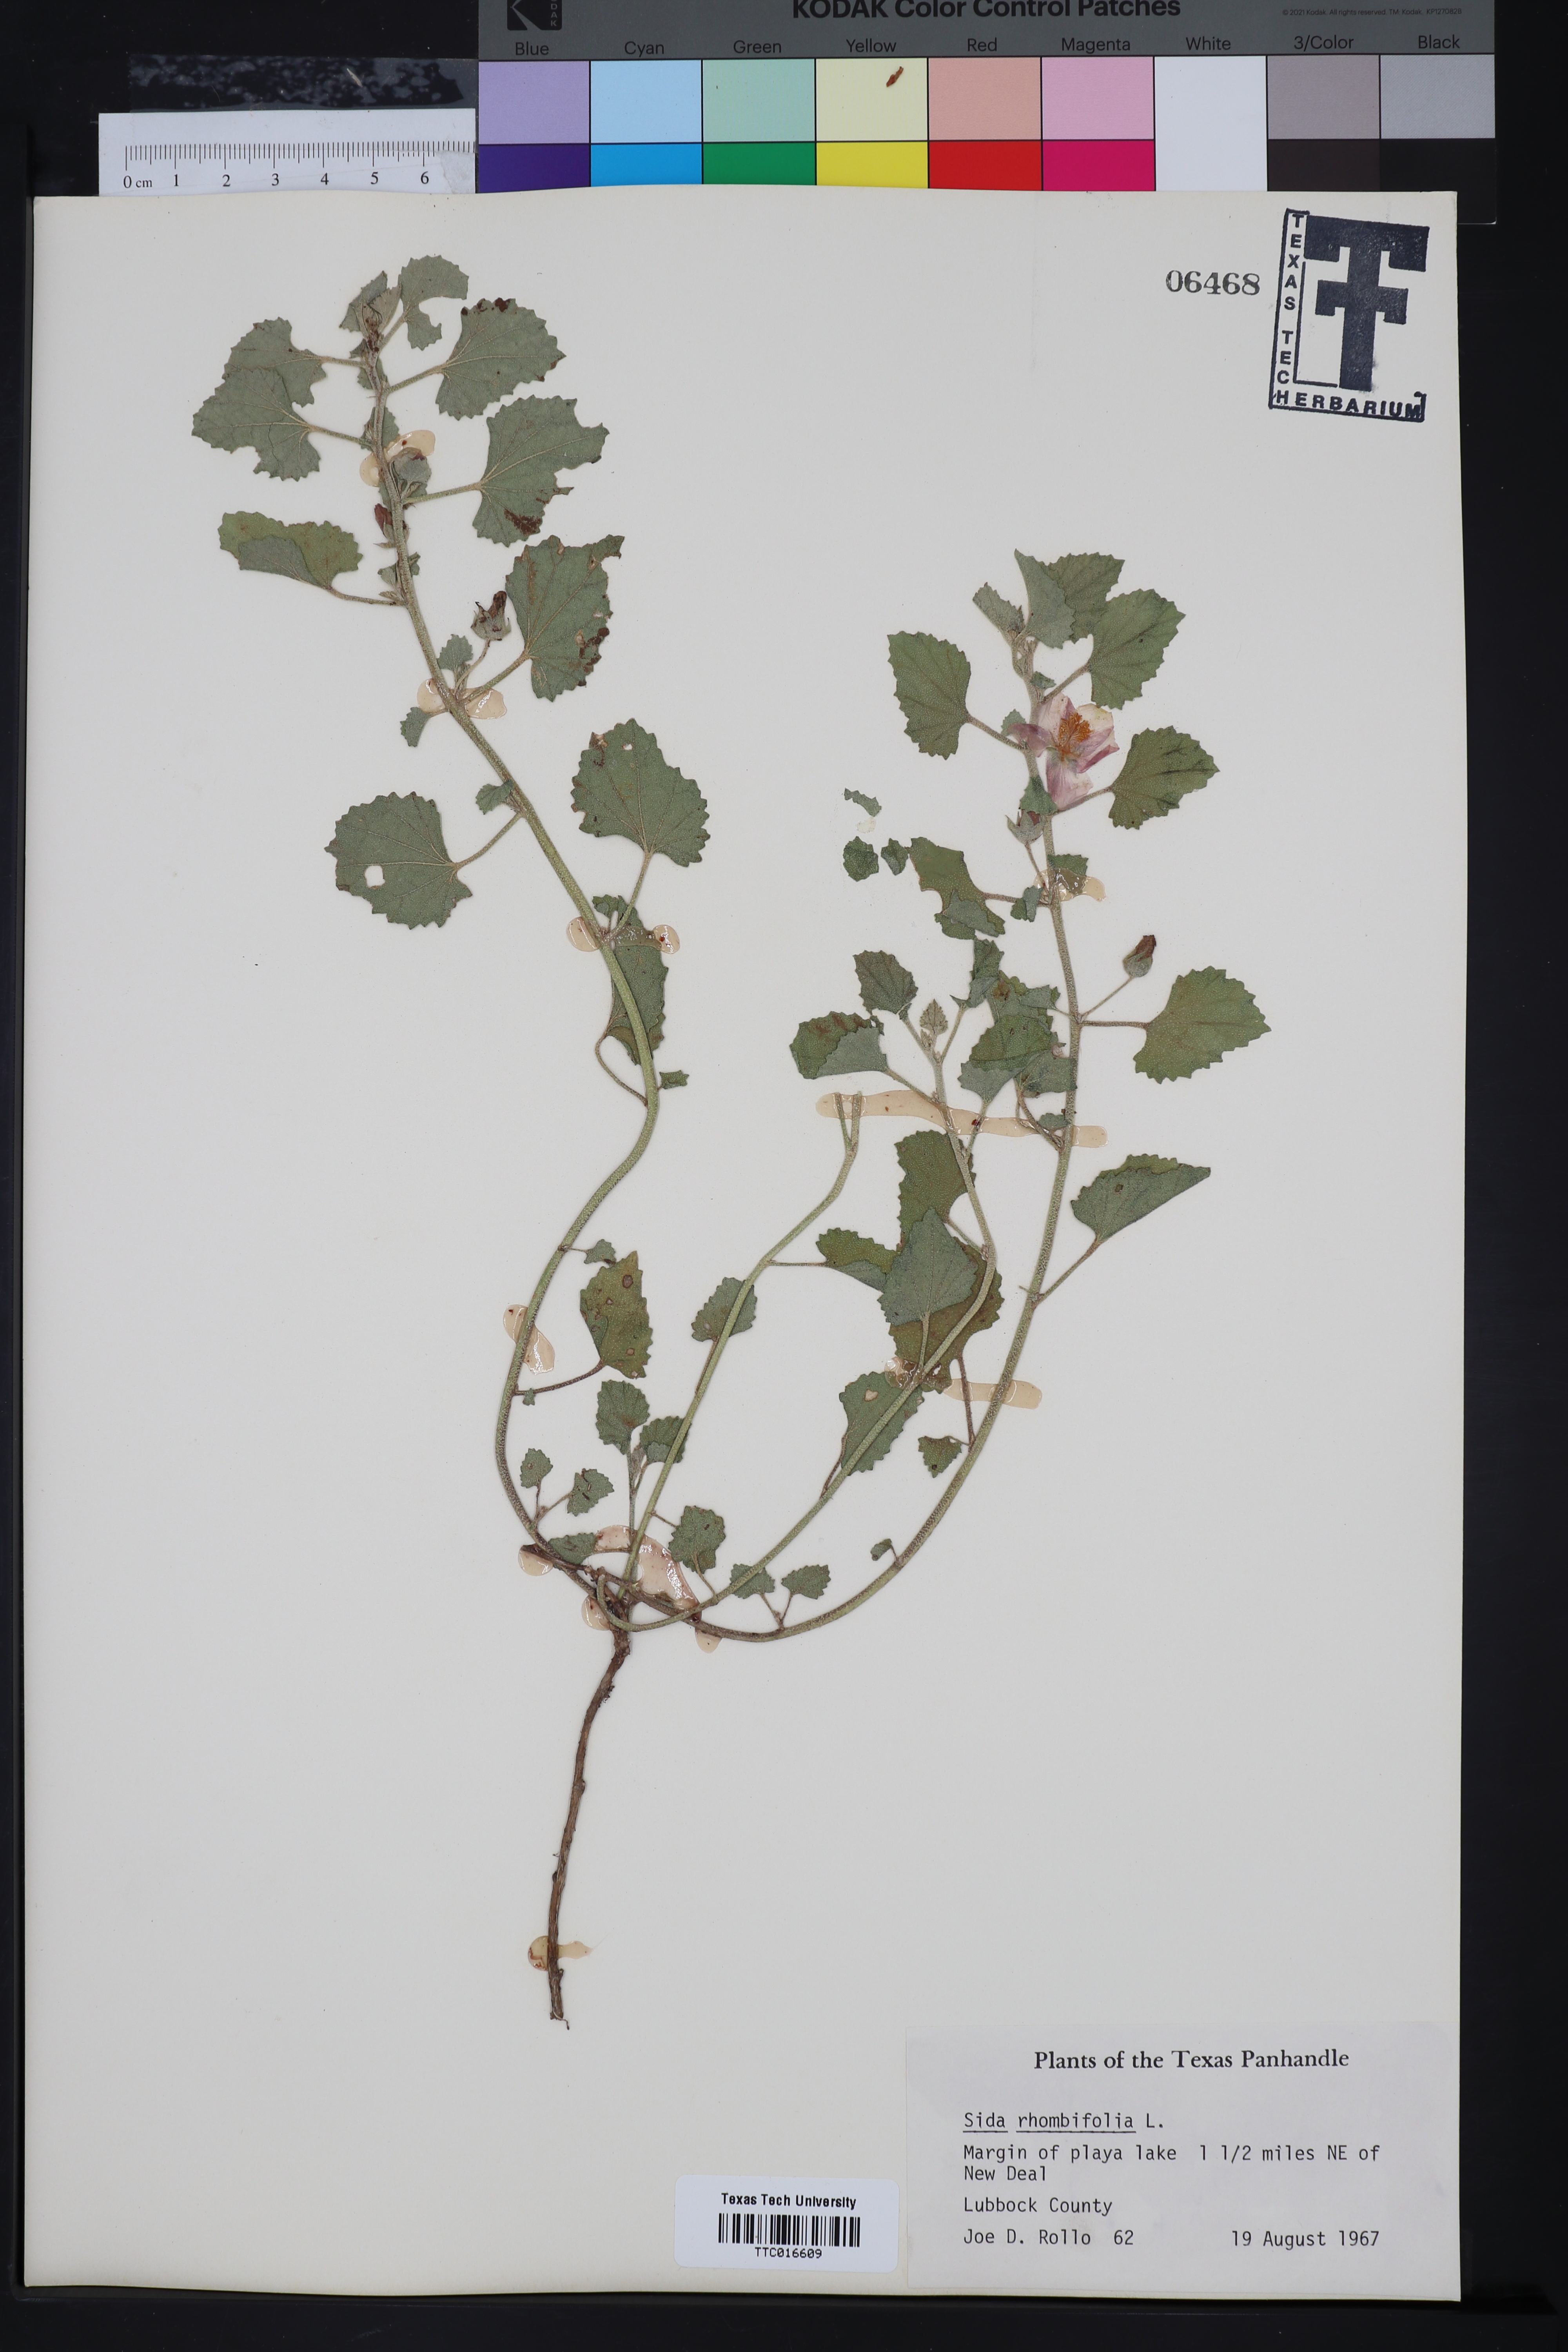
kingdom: Plantae
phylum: Tracheophyta
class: Magnoliopsida
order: Malvales
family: Malvaceae
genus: Sida
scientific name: Sida rhombifolia
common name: Queensland-hemp
